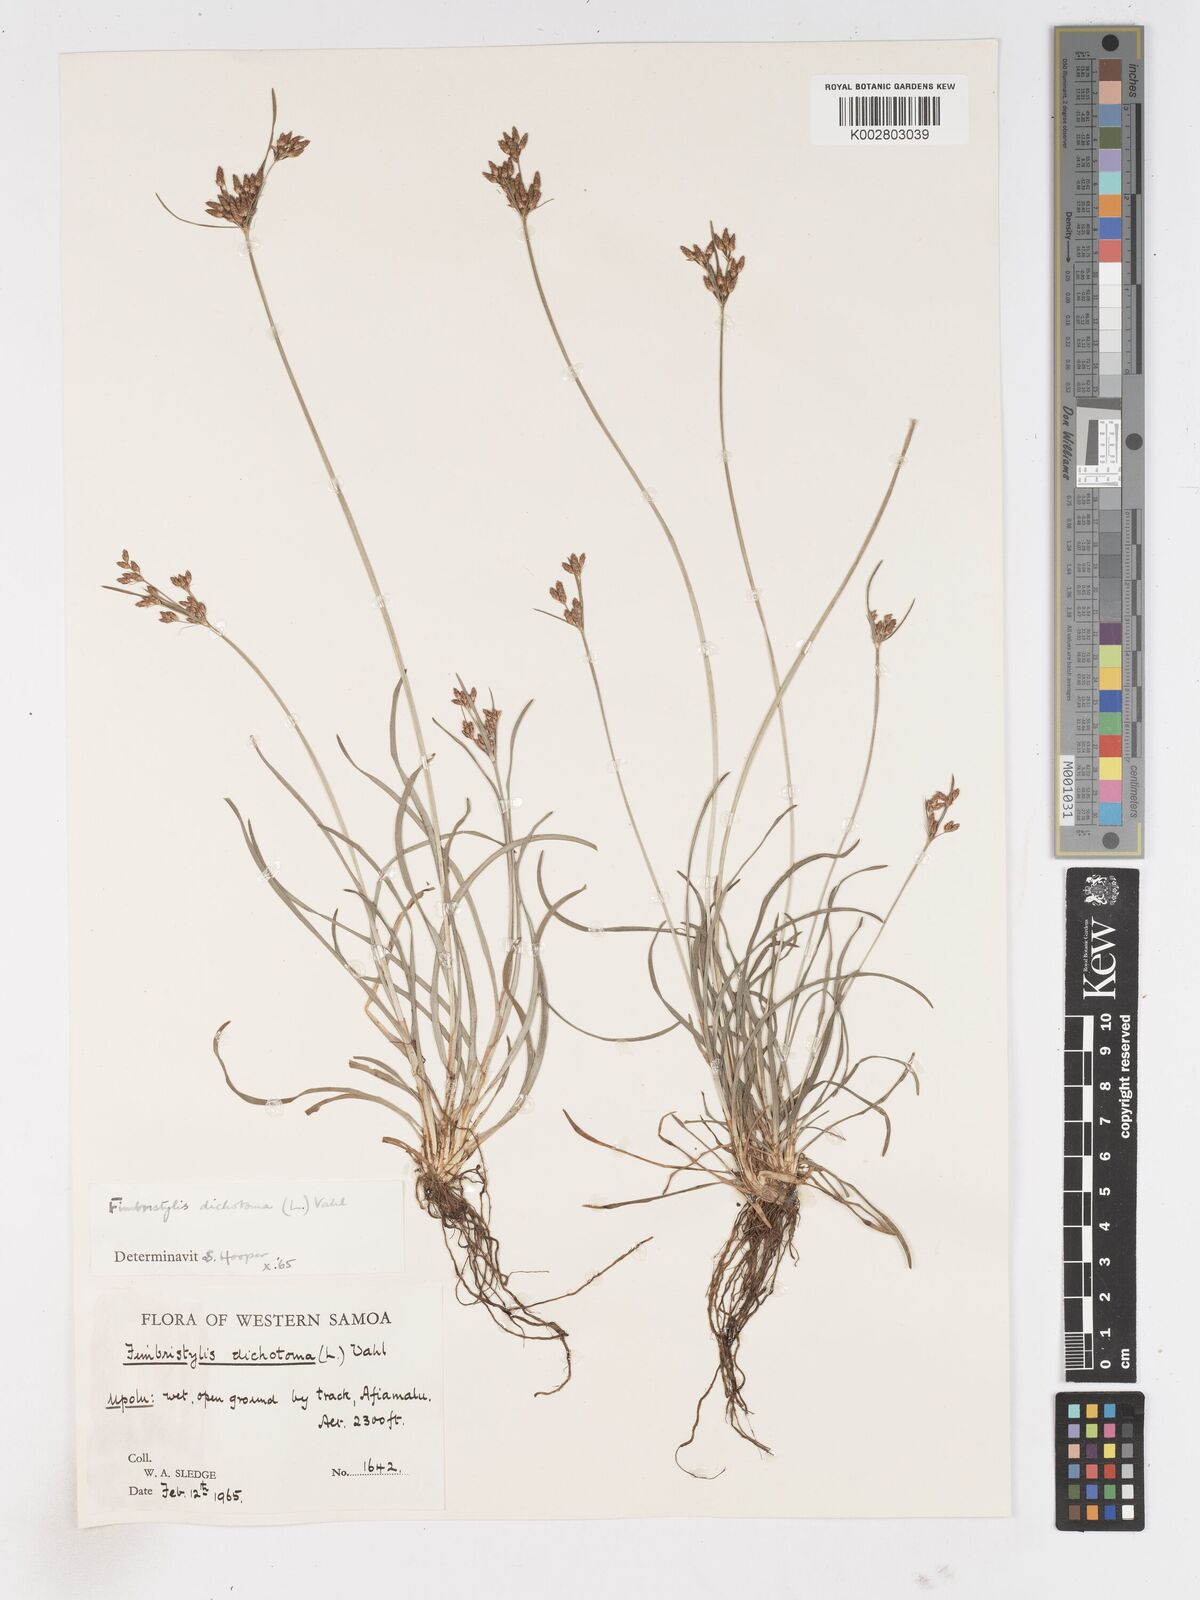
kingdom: Plantae
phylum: Tracheophyta
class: Liliopsida
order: Poales
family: Cyperaceae
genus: Fimbristylis
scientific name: Fimbristylis dichotoma
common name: Forked fimbry
